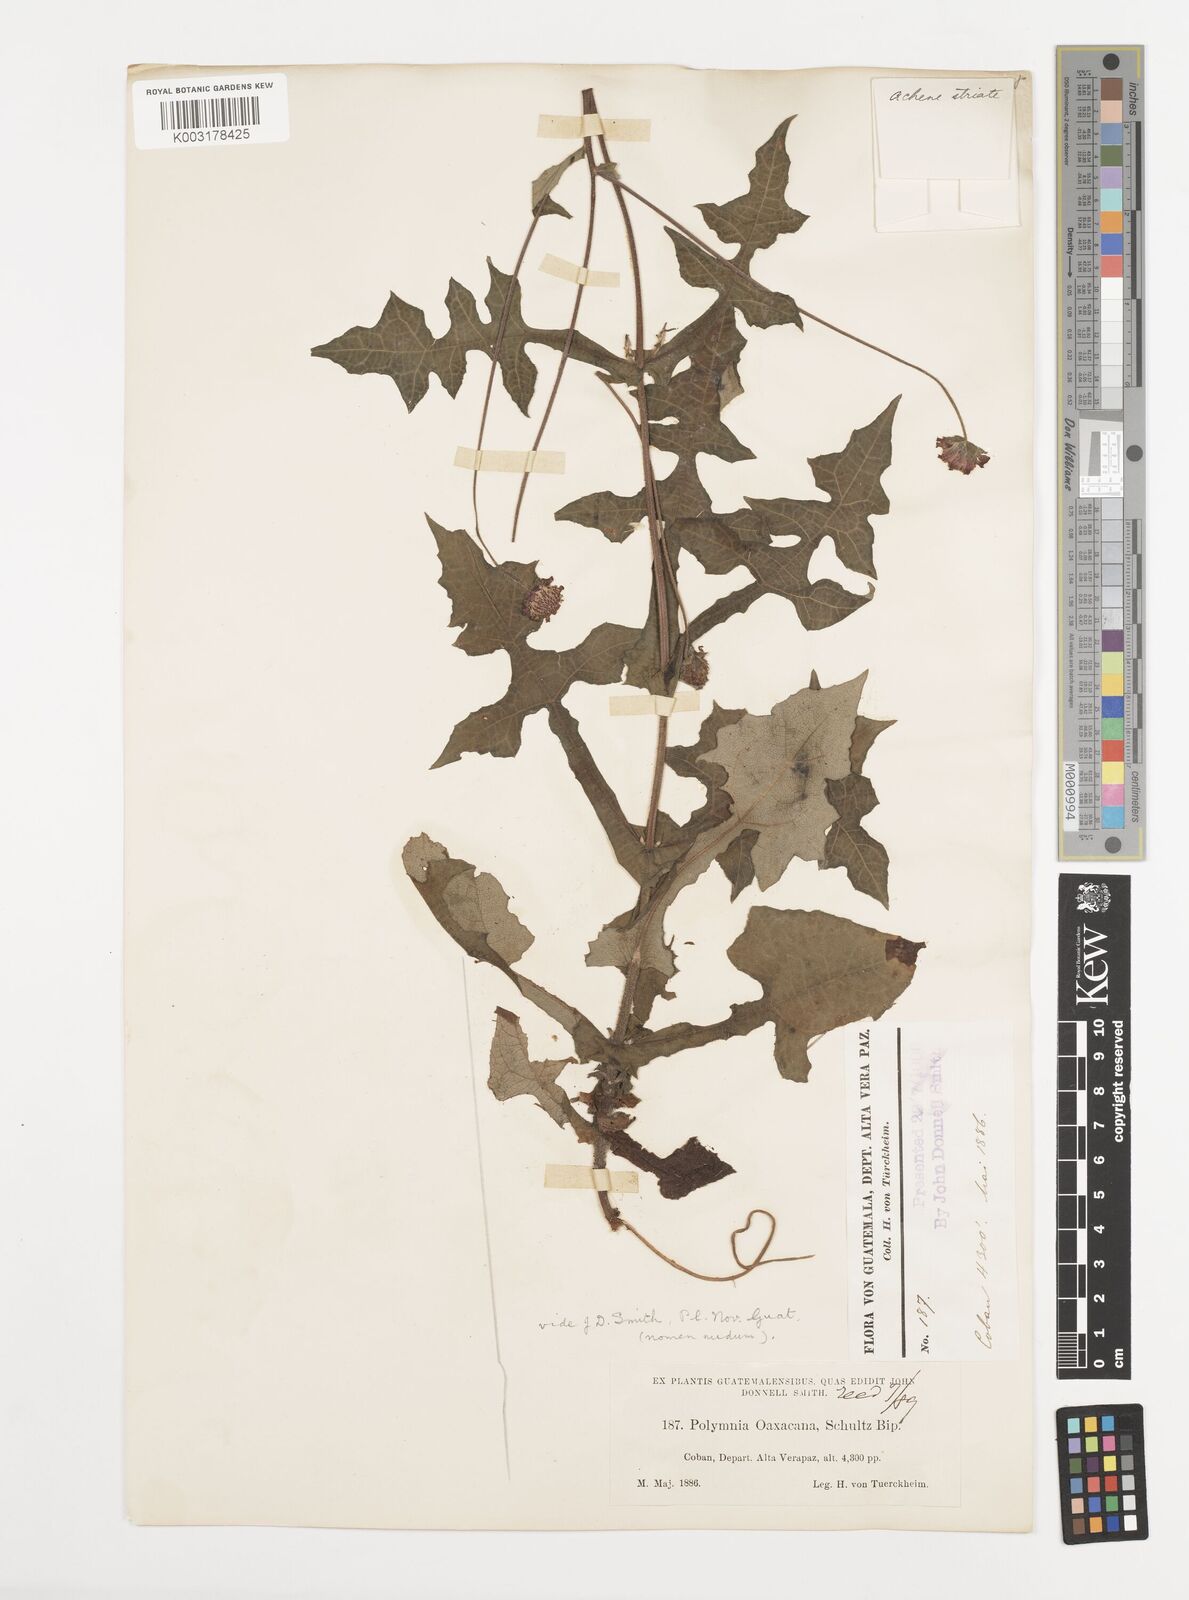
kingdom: Plantae
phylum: Tracheophyta
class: Magnoliopsida
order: Asterales
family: Asteraceae
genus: Smallanthus
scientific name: Smallanthus oaxacanus
